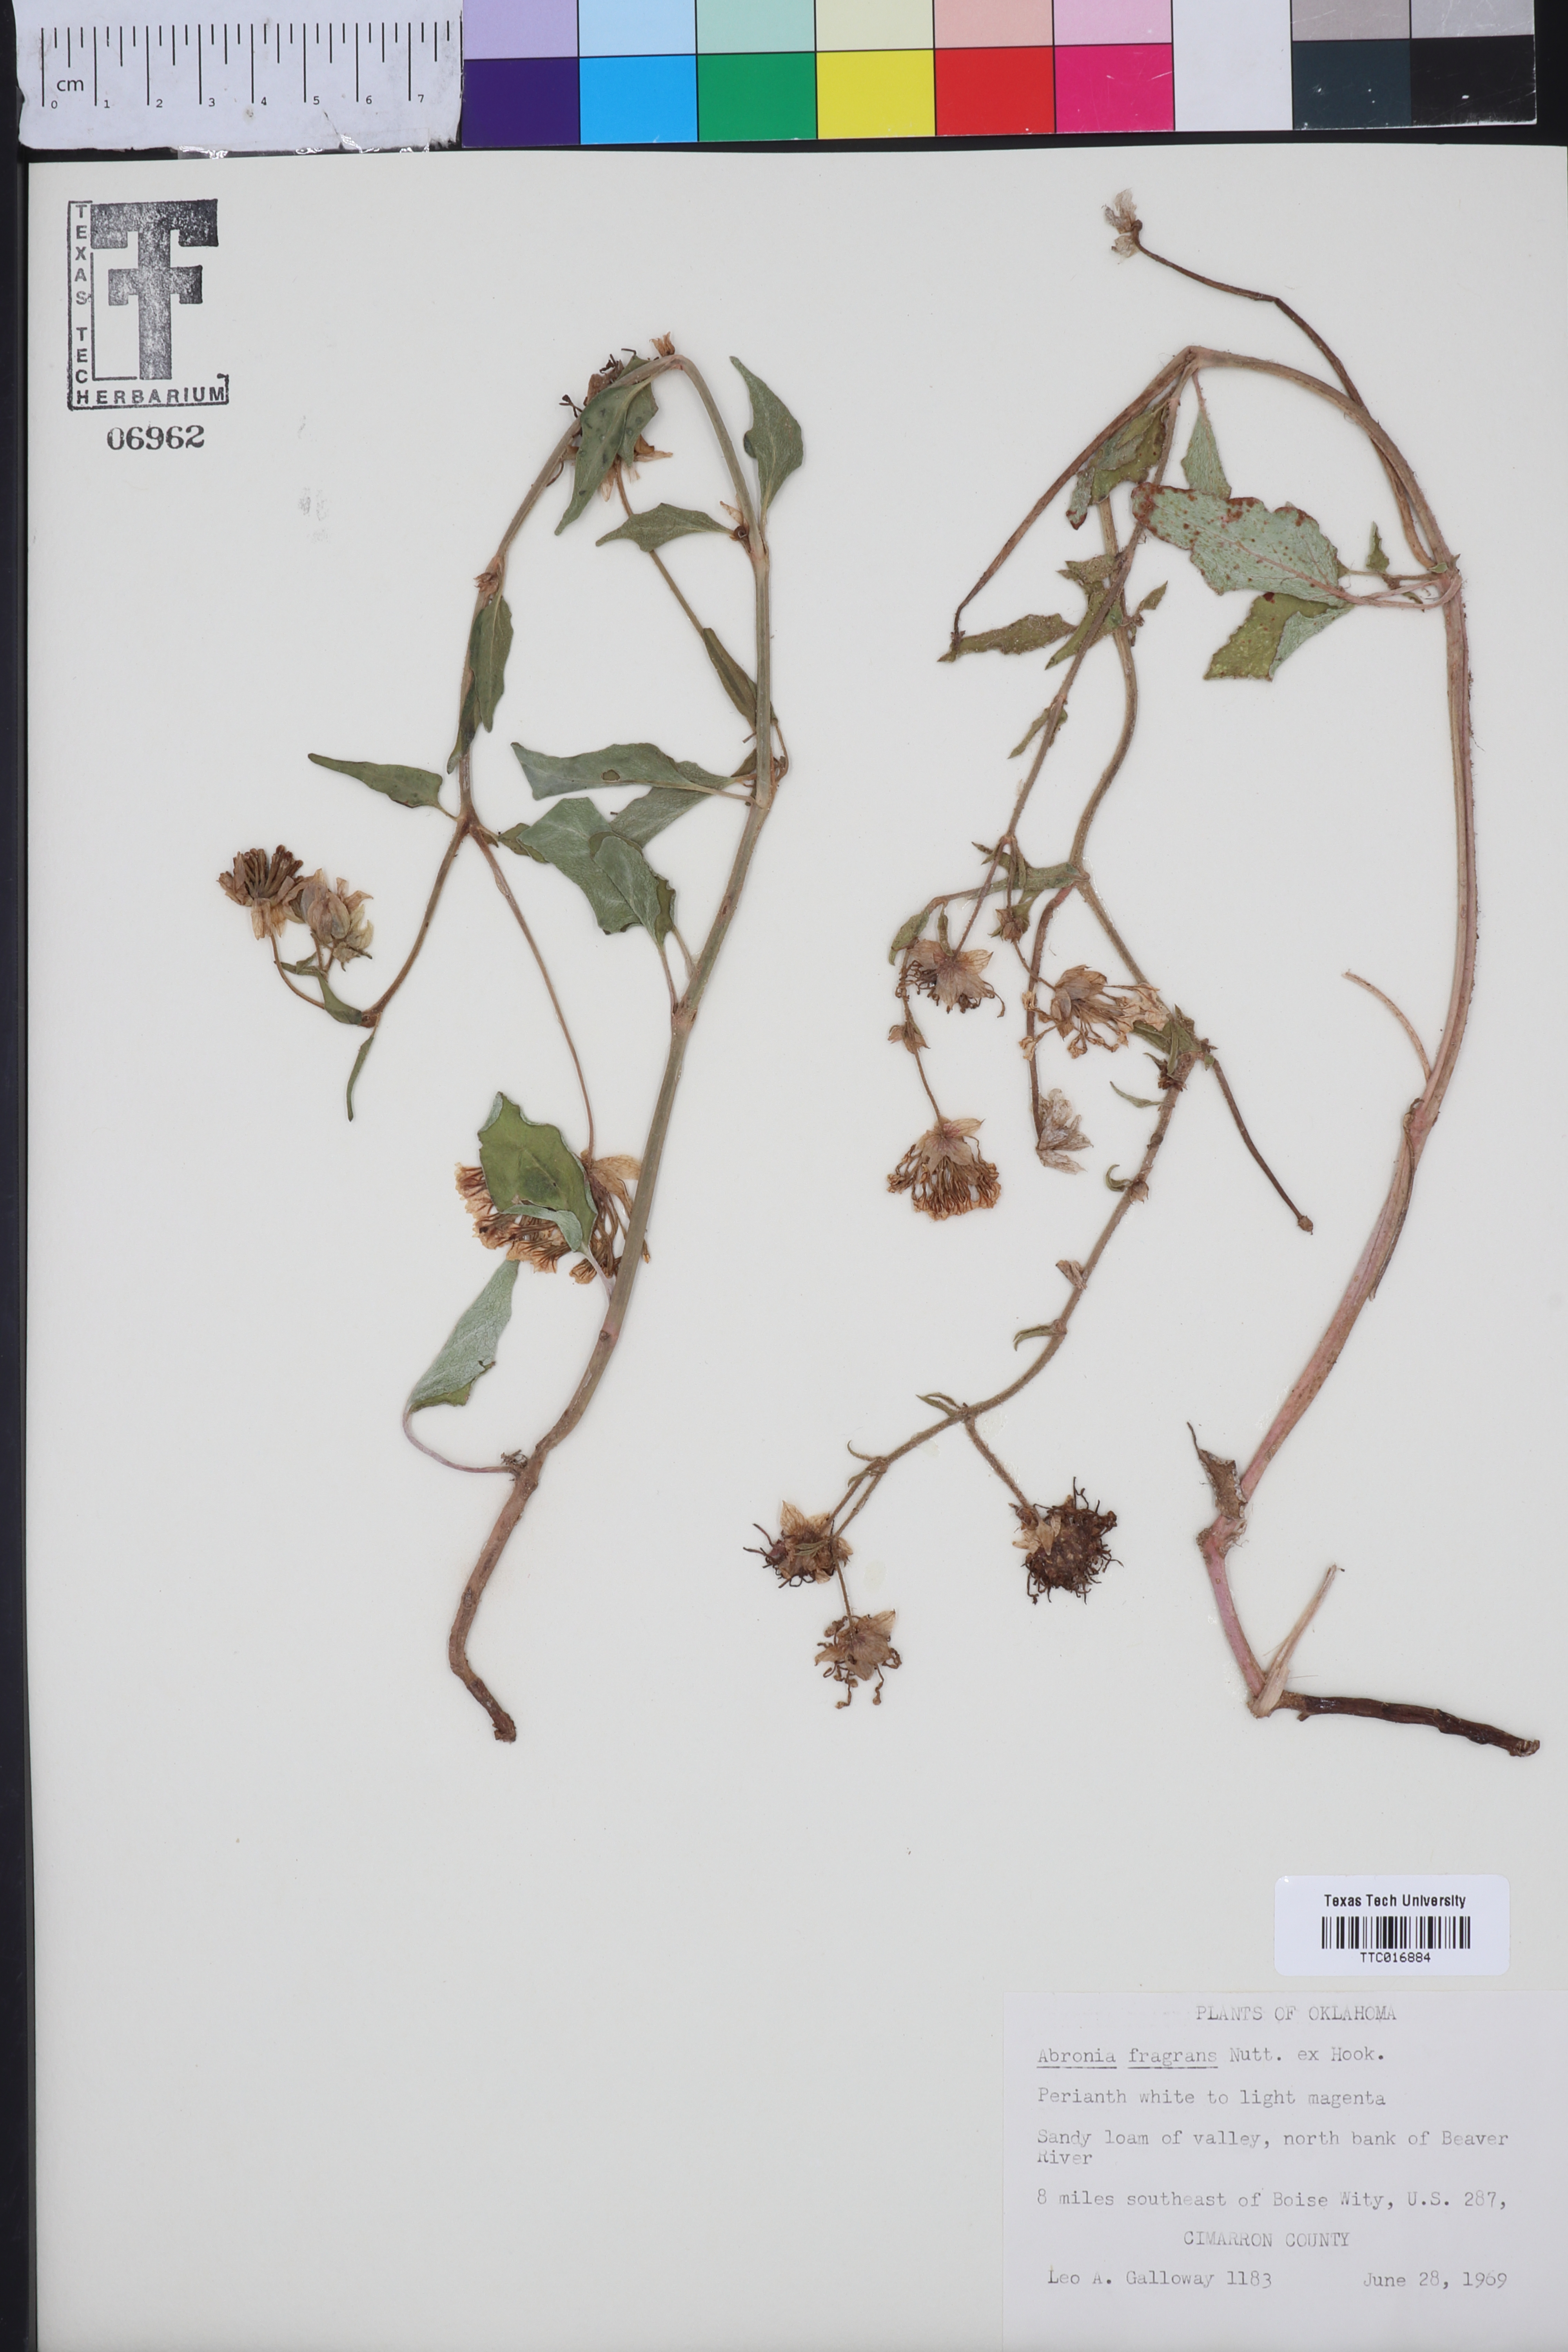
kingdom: Plantae
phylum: Tracheophyta
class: Magnoliopsida
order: Caryophyllales
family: Nyctaginaceae
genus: Abronia
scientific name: Abronia fragrans
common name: Fragrant sand-verbena
